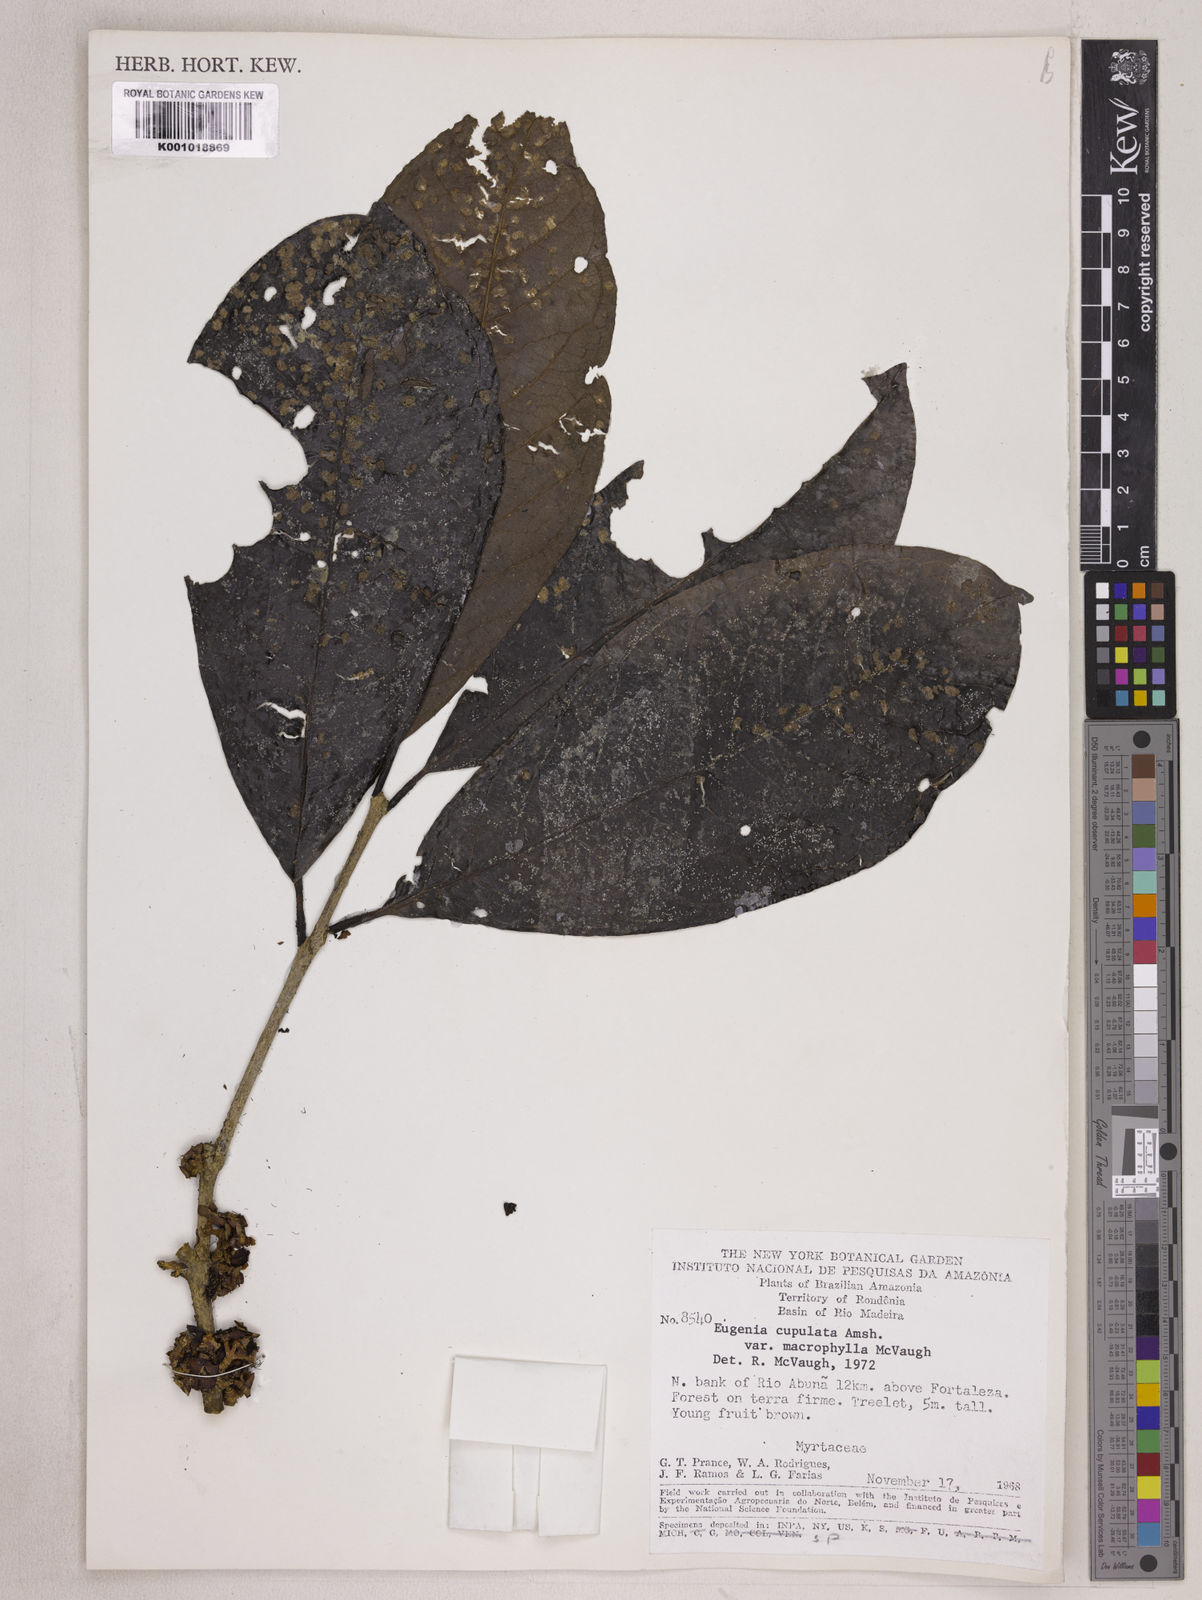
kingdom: Plantae
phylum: Tracheophyta
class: Magnoliopsida
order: Myrtales
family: Myrtaceae
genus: Eugenia
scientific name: Eugenia glomeruliflora
